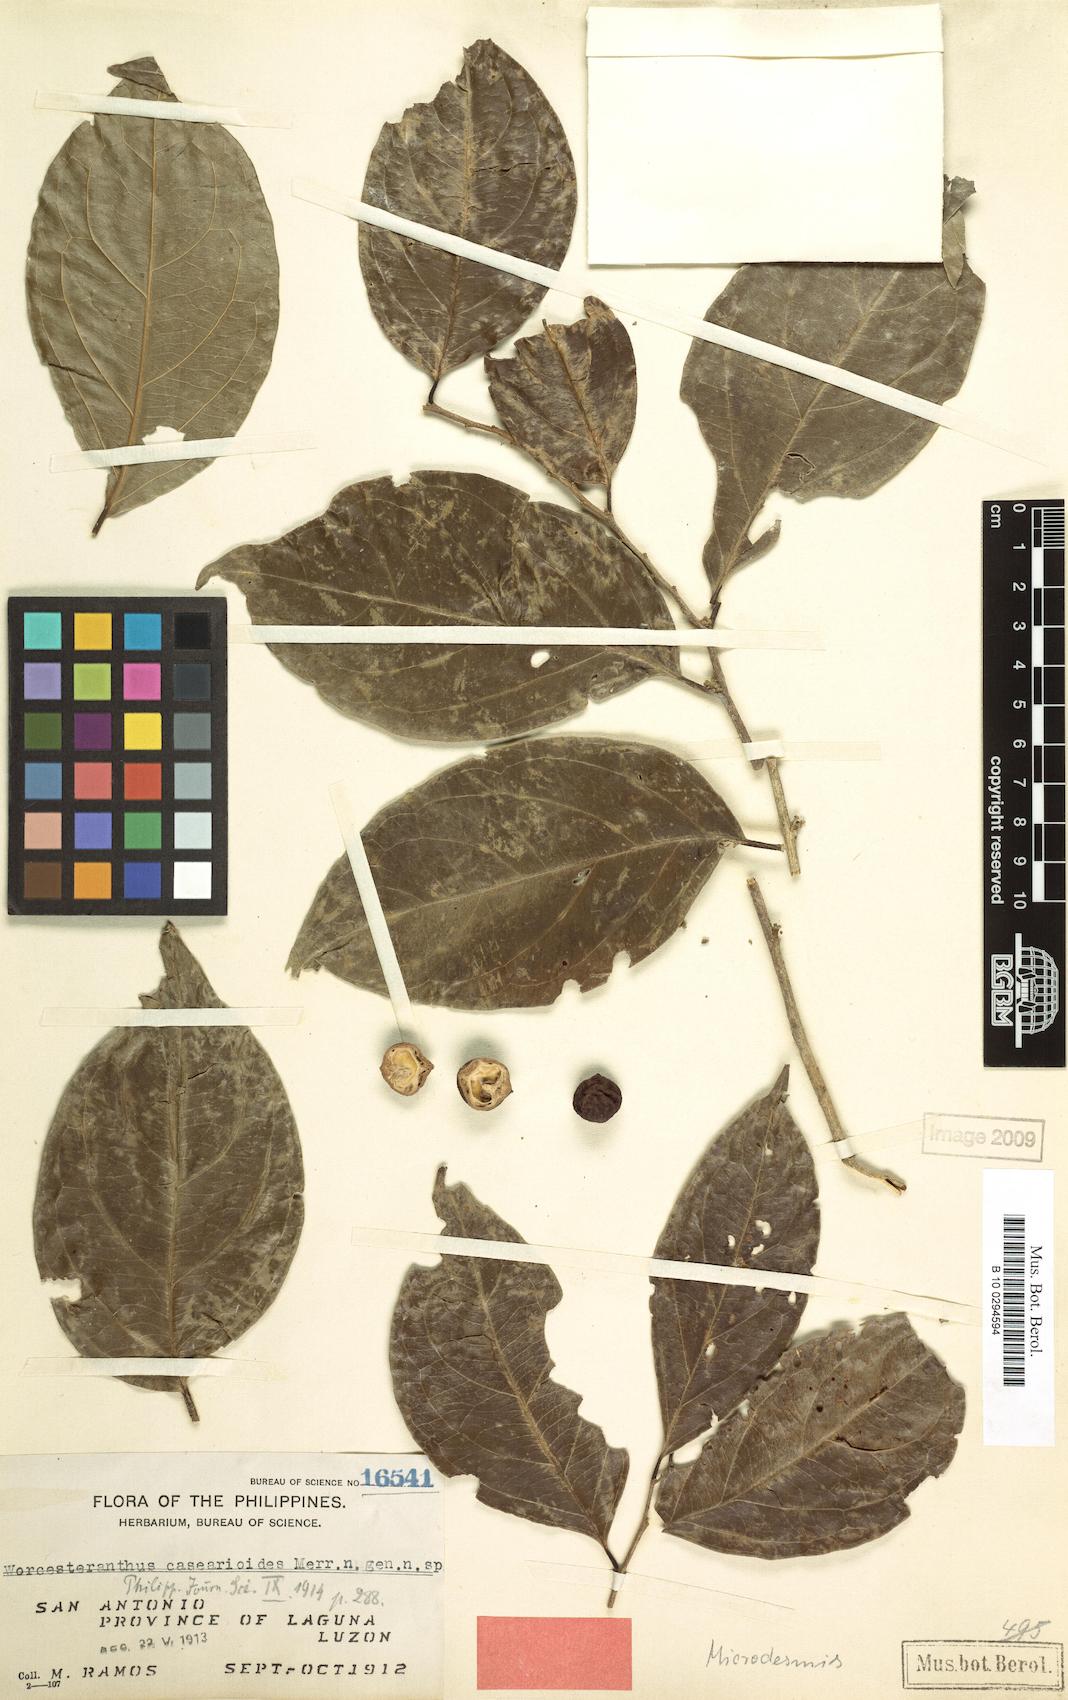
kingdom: Plantae
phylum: Tracheophyta
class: Magnoliopsida
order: Malpighiales
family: Pandaceae
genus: Microdesmis
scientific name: Microdesmis caseariifolia
